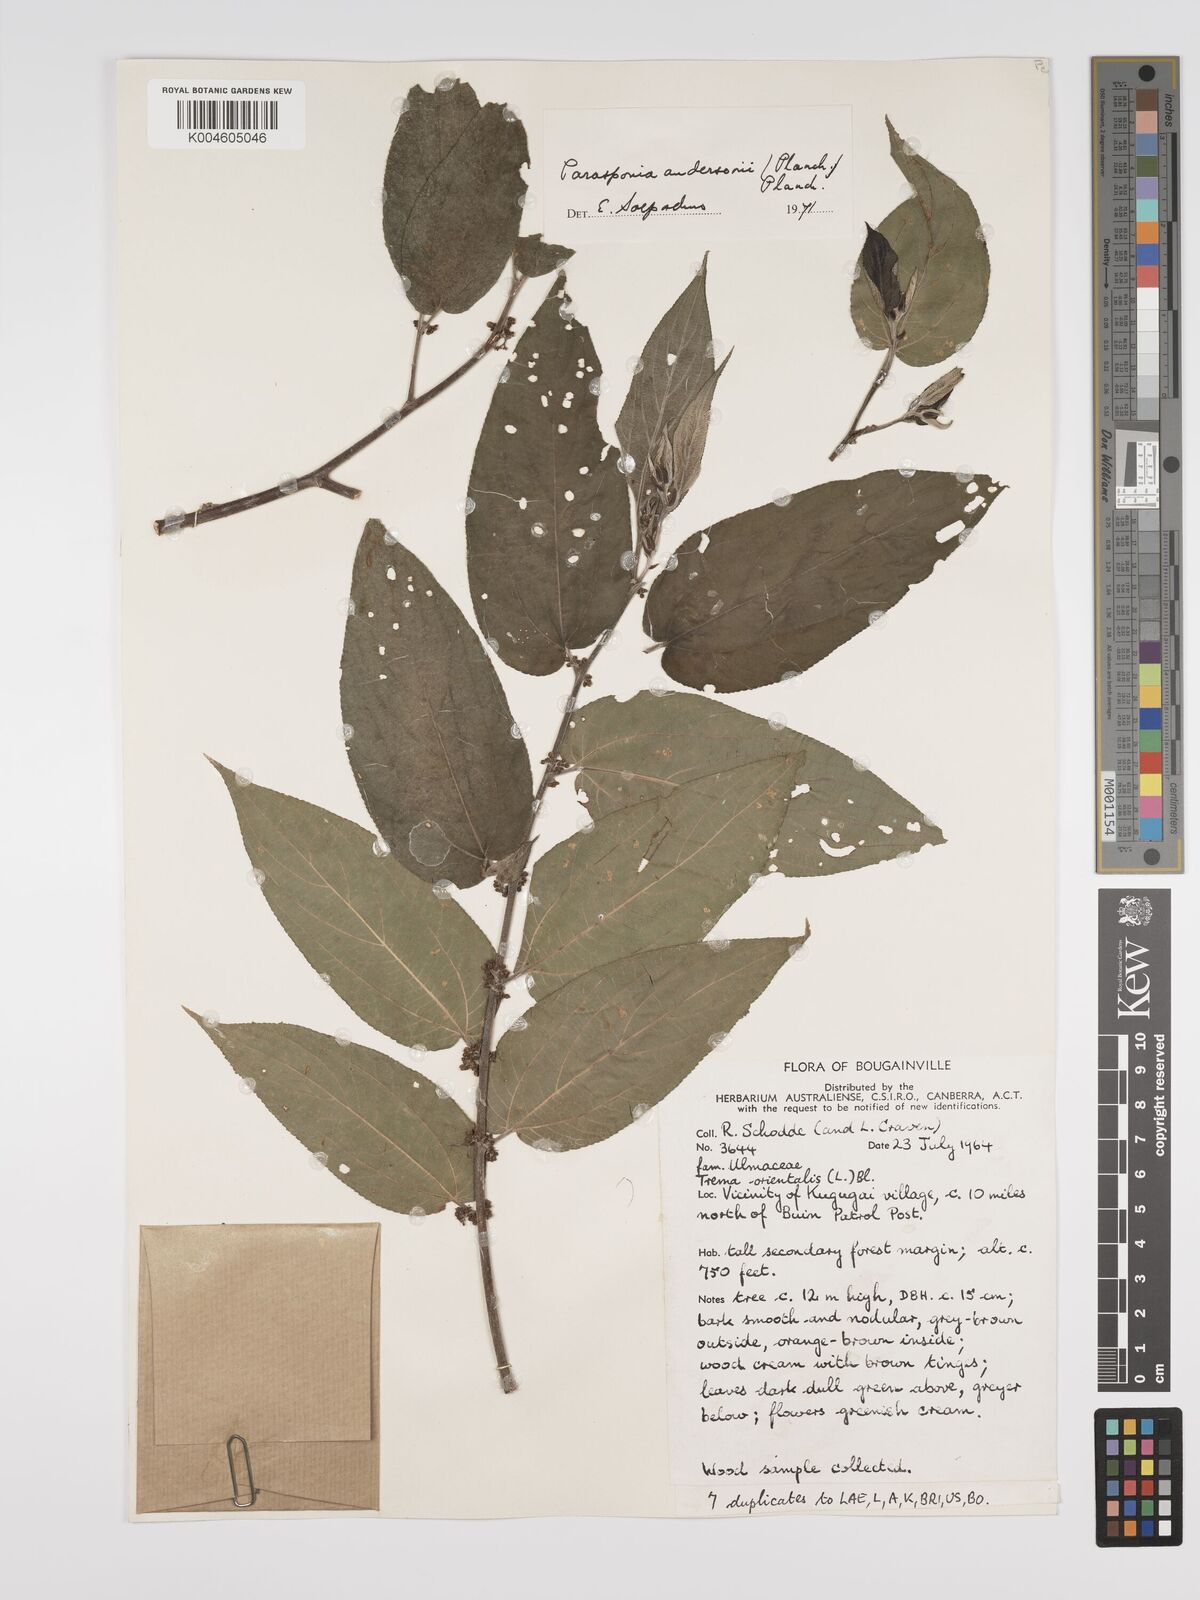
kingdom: Plantae
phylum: Tracheophyta
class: Magnoliopsida
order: Rosales
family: Cannabaceae
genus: Trema
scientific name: Trema andersonii
